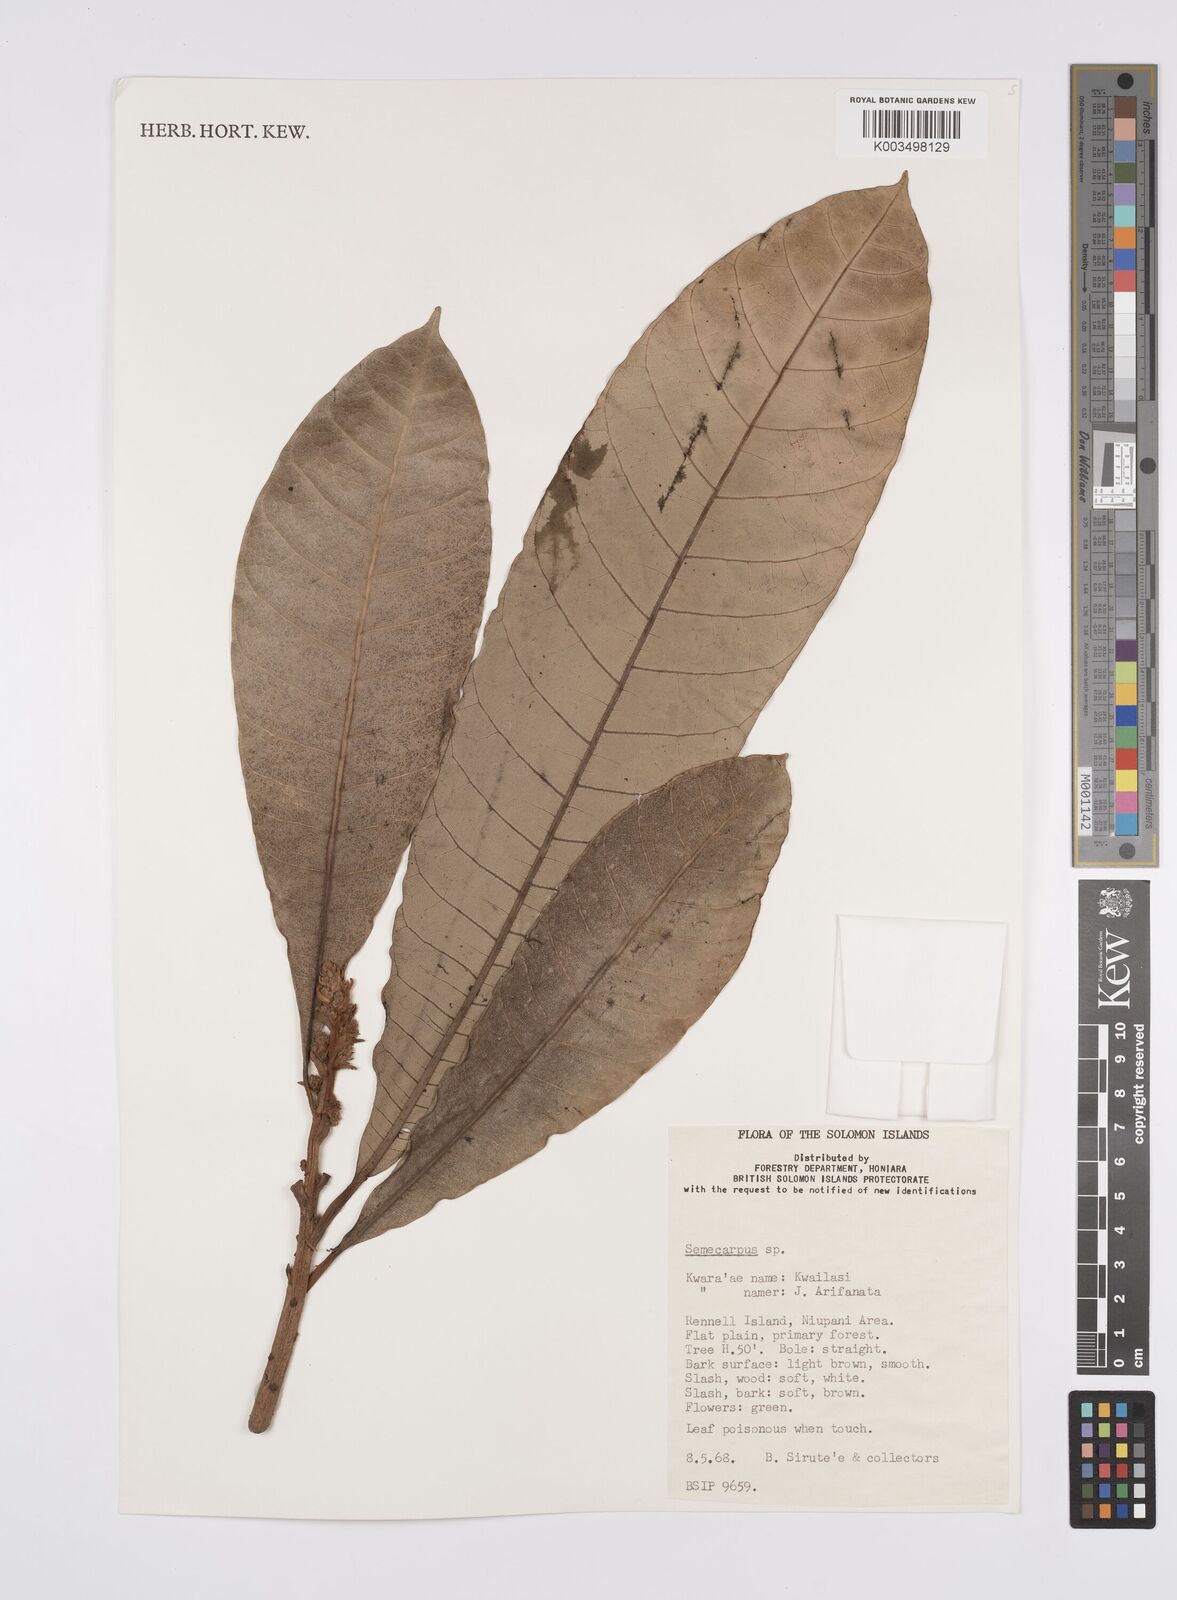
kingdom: Plantae
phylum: Tracheophyta
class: Magnoliopsida
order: Sapindales
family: Anacardiaceae
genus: Semecarpus
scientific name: Semecarpus
